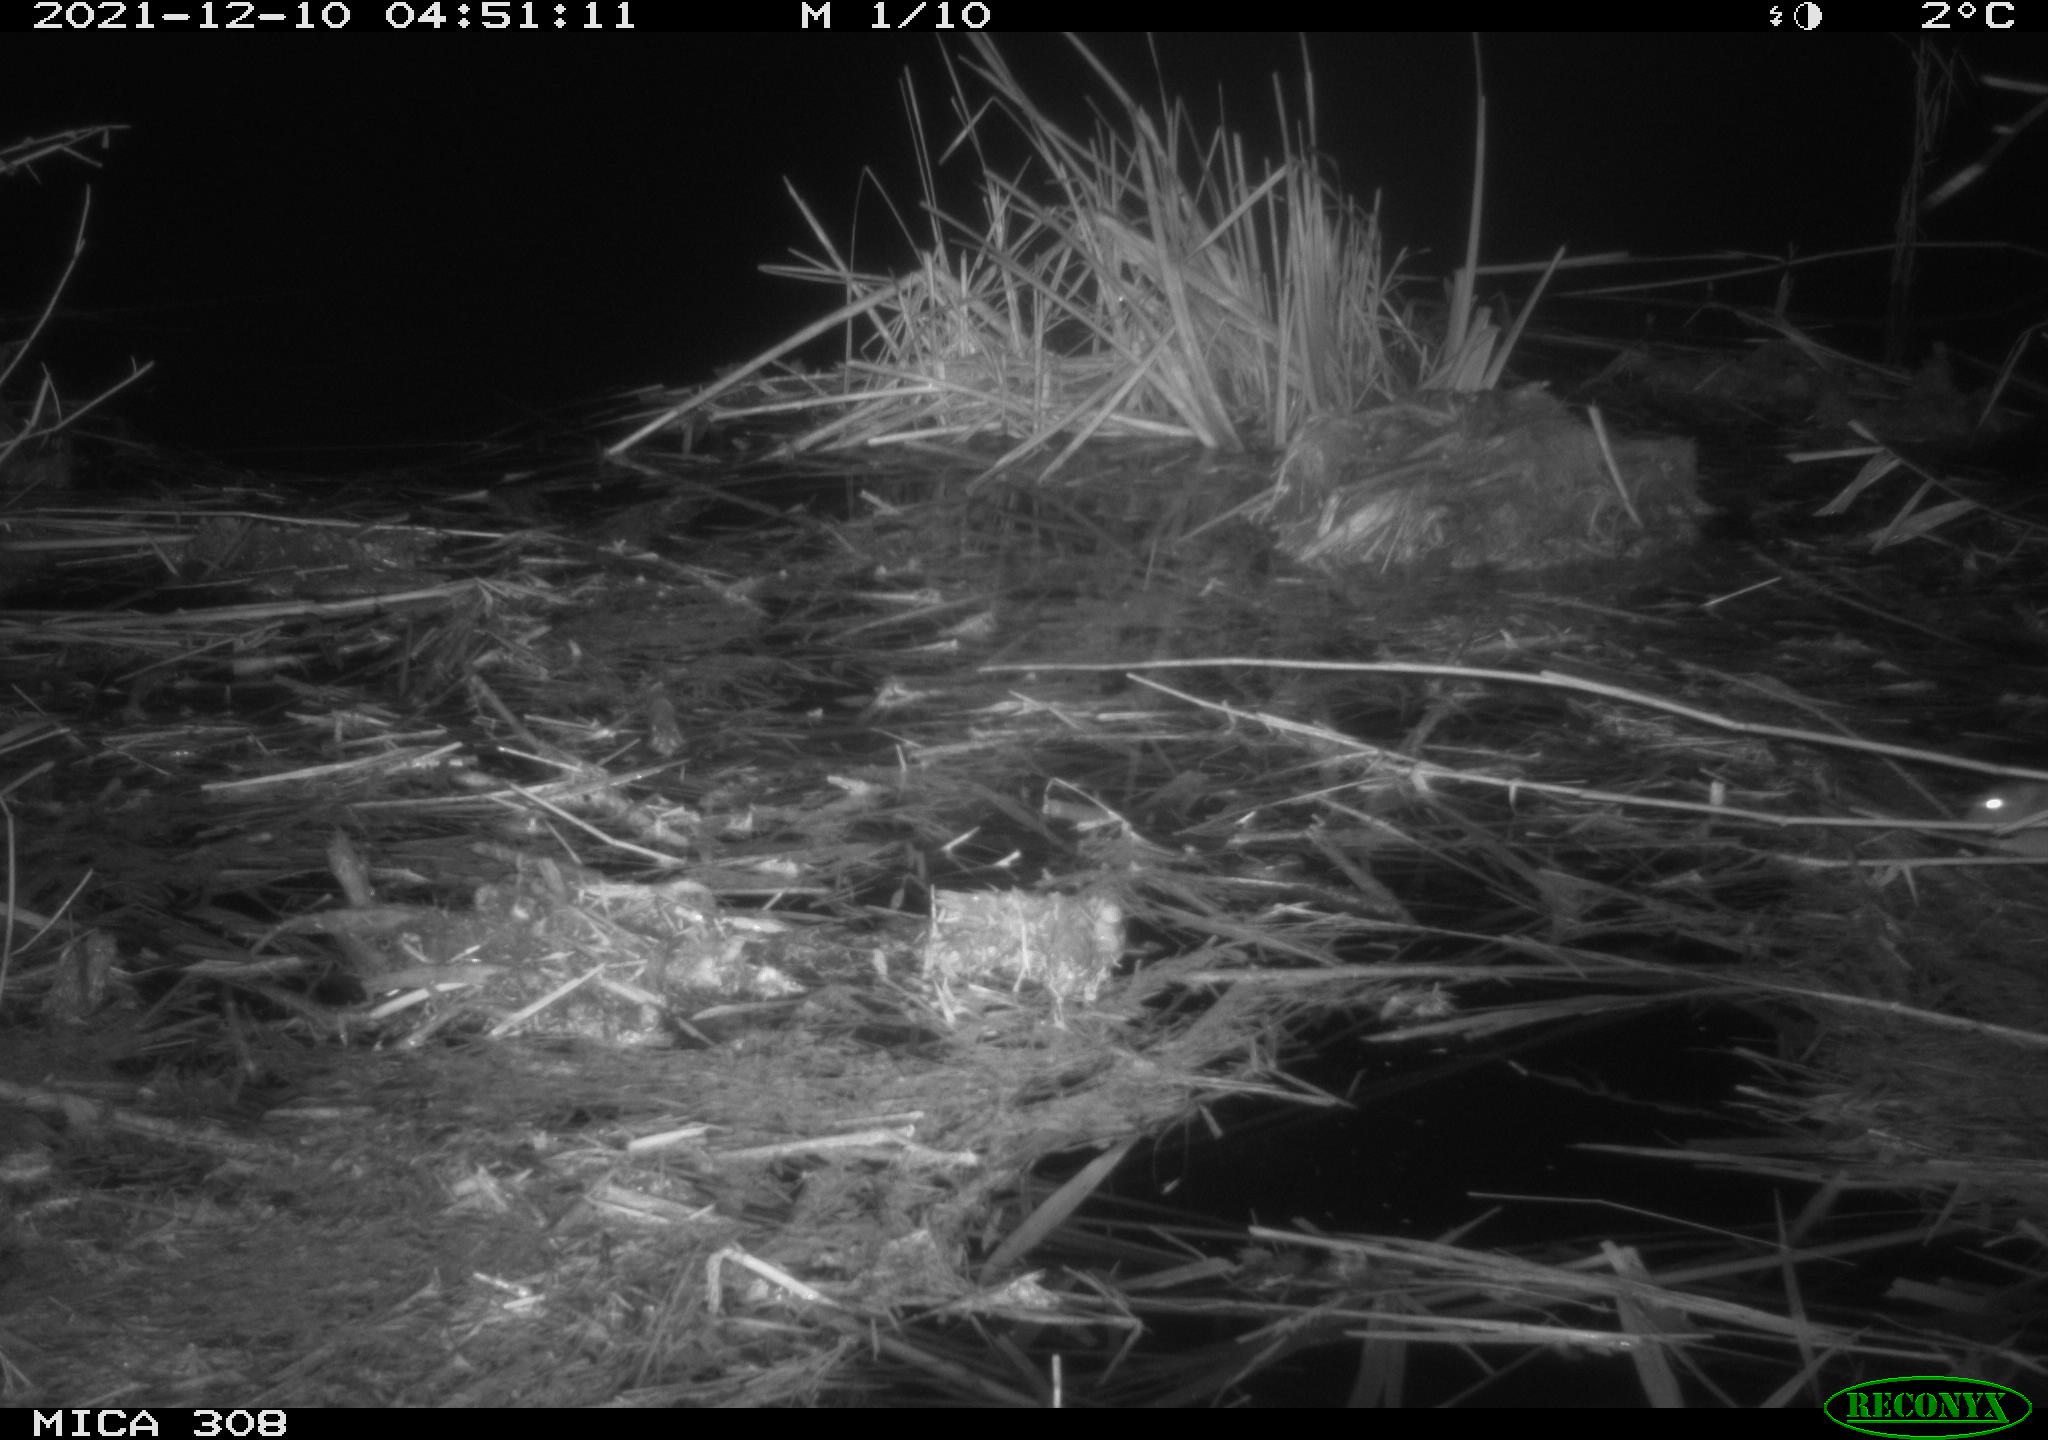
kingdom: Animalia
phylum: Chordata
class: Mammalia
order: Rodentia
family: Muridae
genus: Rattus
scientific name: Rattus norvegicus
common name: Brown rat
